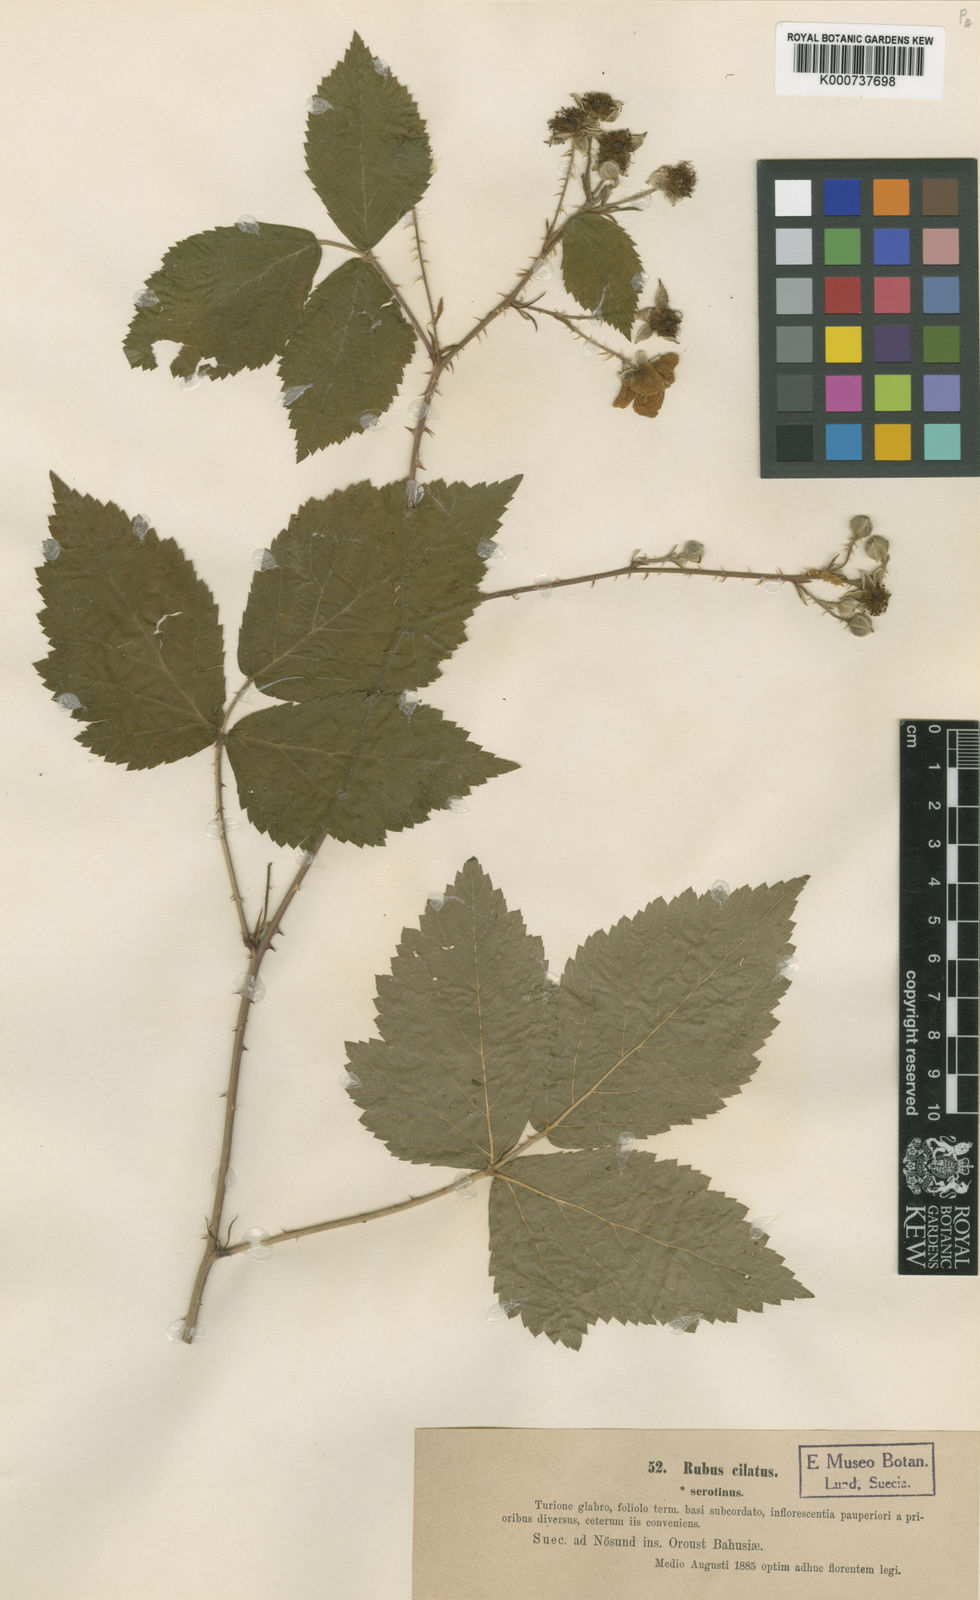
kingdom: Plantae
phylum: Tracheophyta
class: Magnoliopsida
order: Rosales
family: Rosaceae
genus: Rubus
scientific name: Rubus
